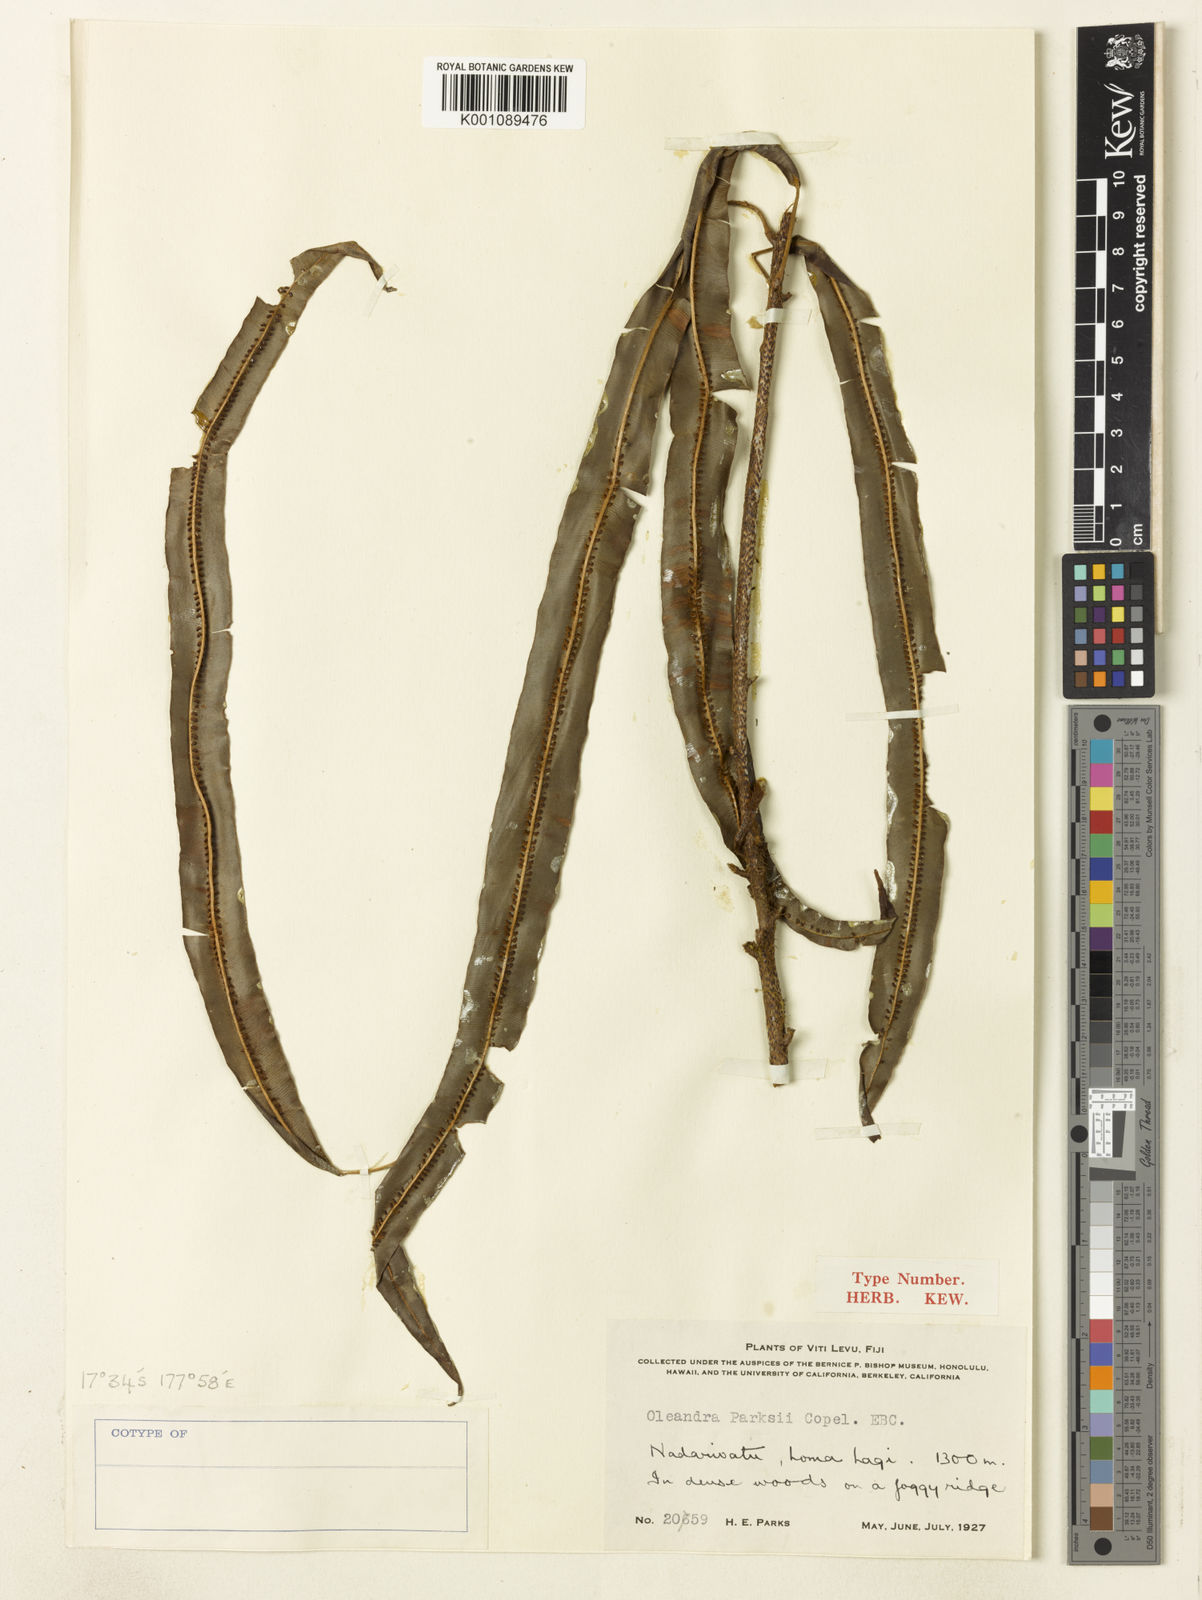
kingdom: Plantae
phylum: Tracheophyta
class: Polypodiopsida
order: Polypodiales
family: Oleandraceae
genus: Oleandra
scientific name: Oleandra
